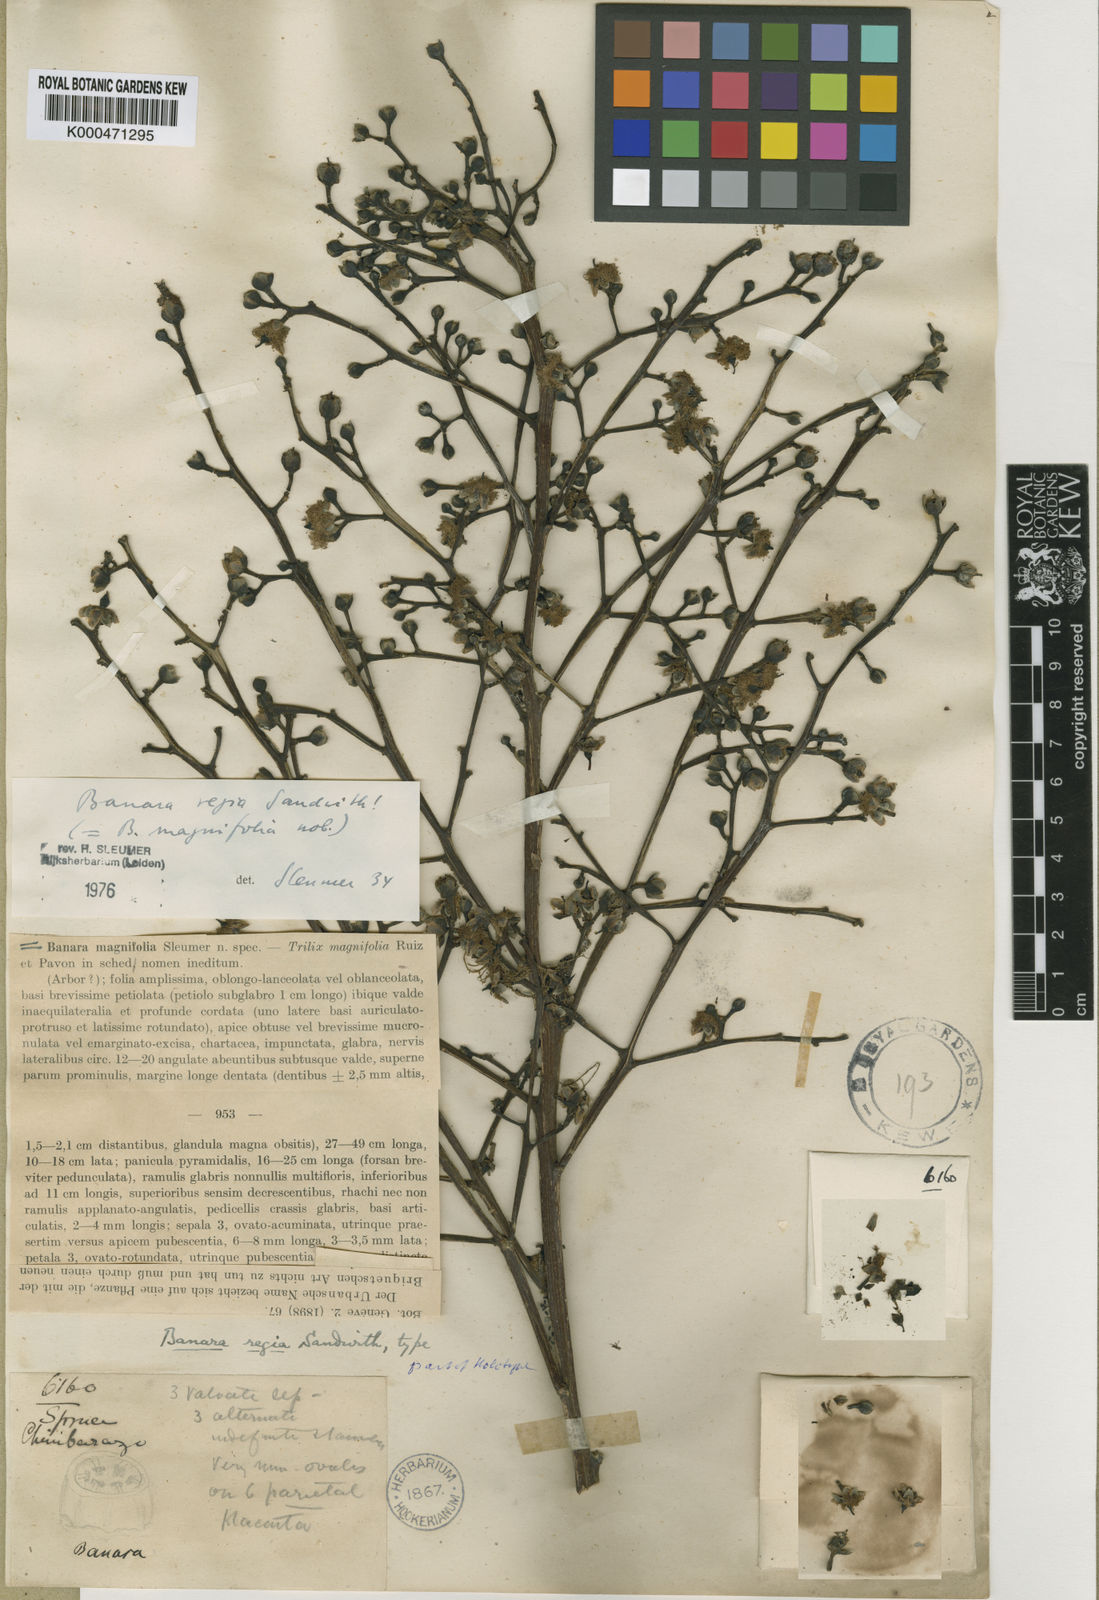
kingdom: Plantae
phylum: Tracheophyta
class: Magnoliopsida
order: Malpighiales
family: Salicaceae
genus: Banara
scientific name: Banara regia
